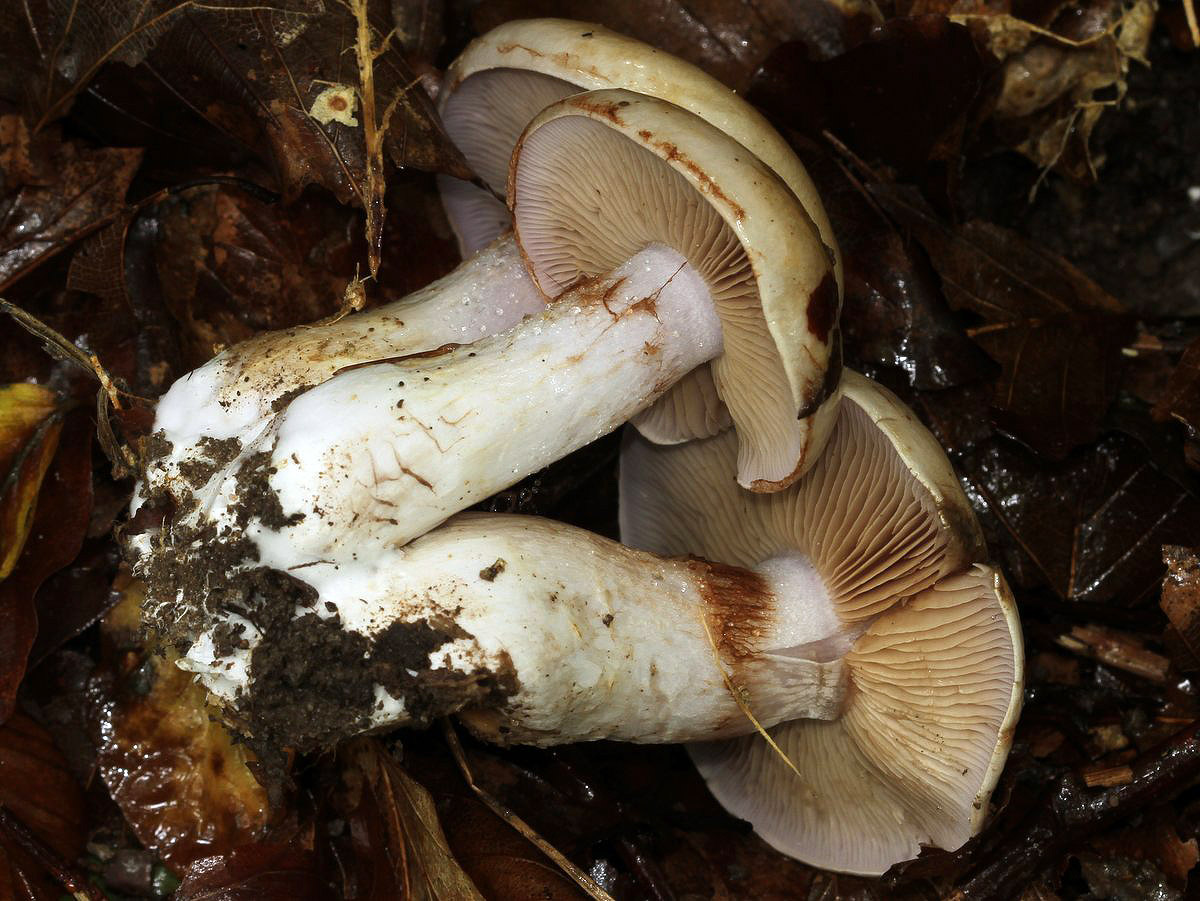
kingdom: Fungi
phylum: Basidiomycota
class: Agaricomycetes
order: Agaricales
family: Cortinariaceae
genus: Cortinarius
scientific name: Cortinarius largus
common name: violetrandet slørhat
